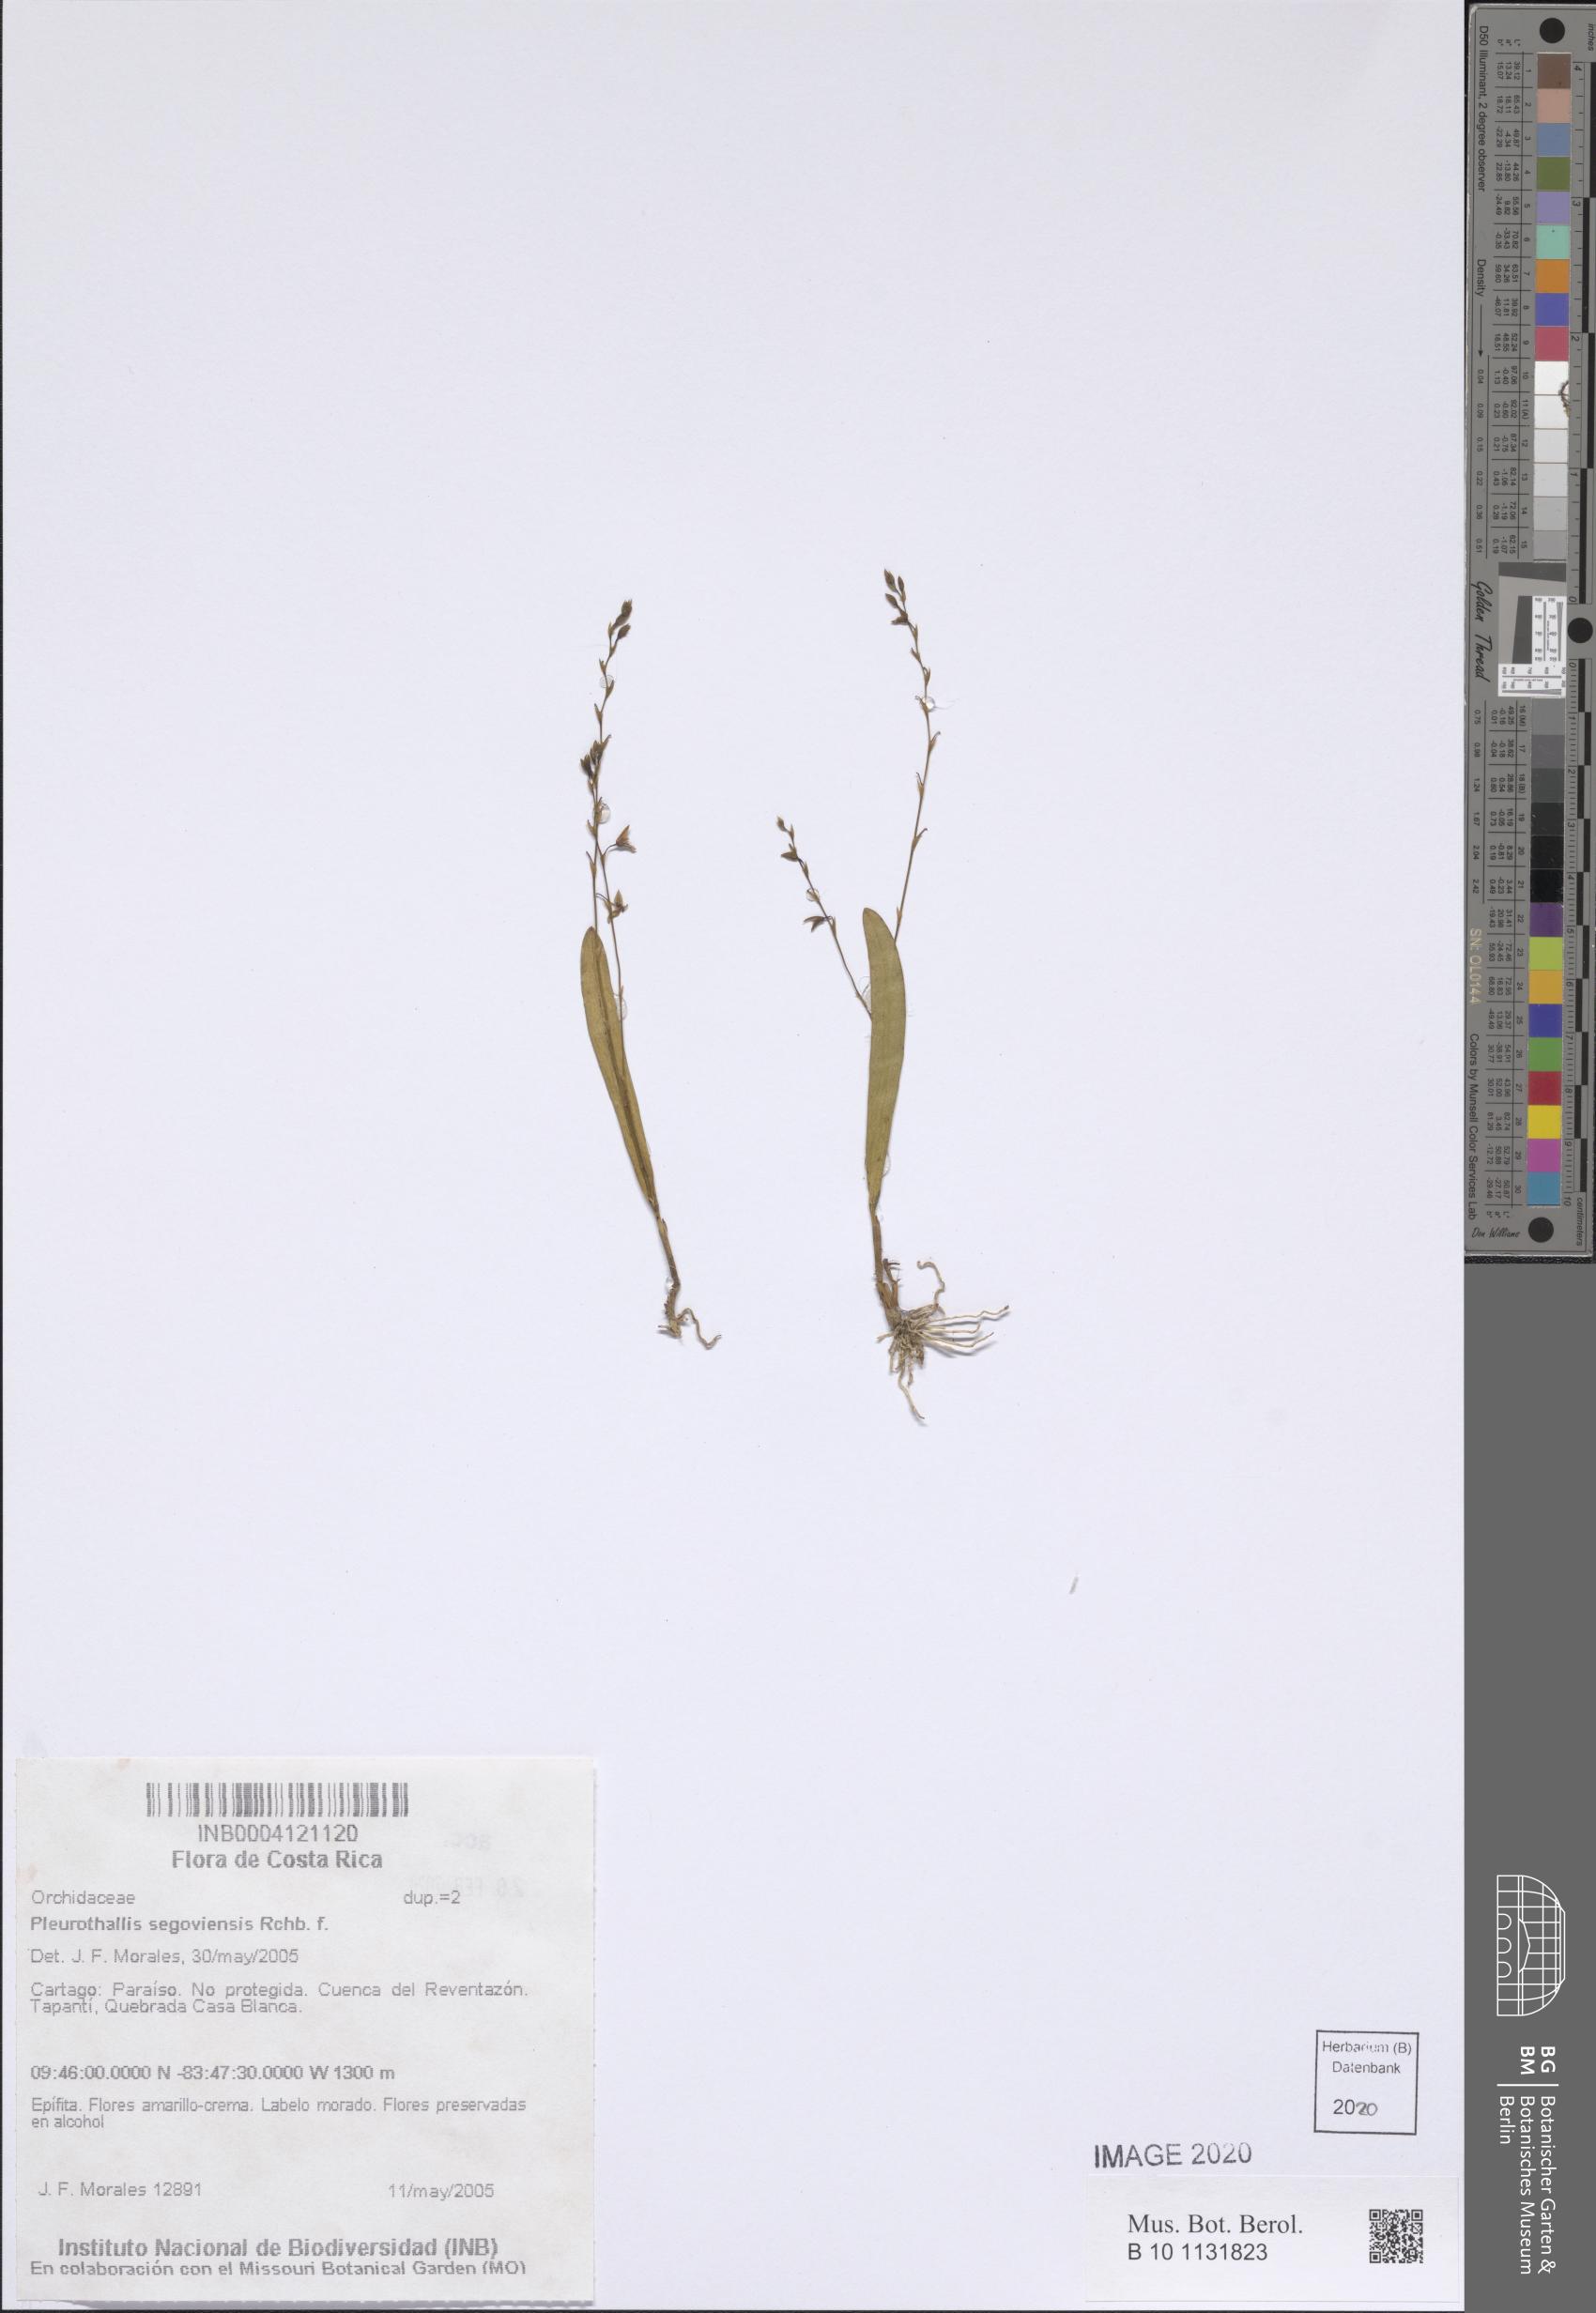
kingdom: Plantae
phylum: Tracheophyta
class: Liliopsida
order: Asparagales
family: Orchidaceae
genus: Stelis
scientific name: Stelis segoviensis
